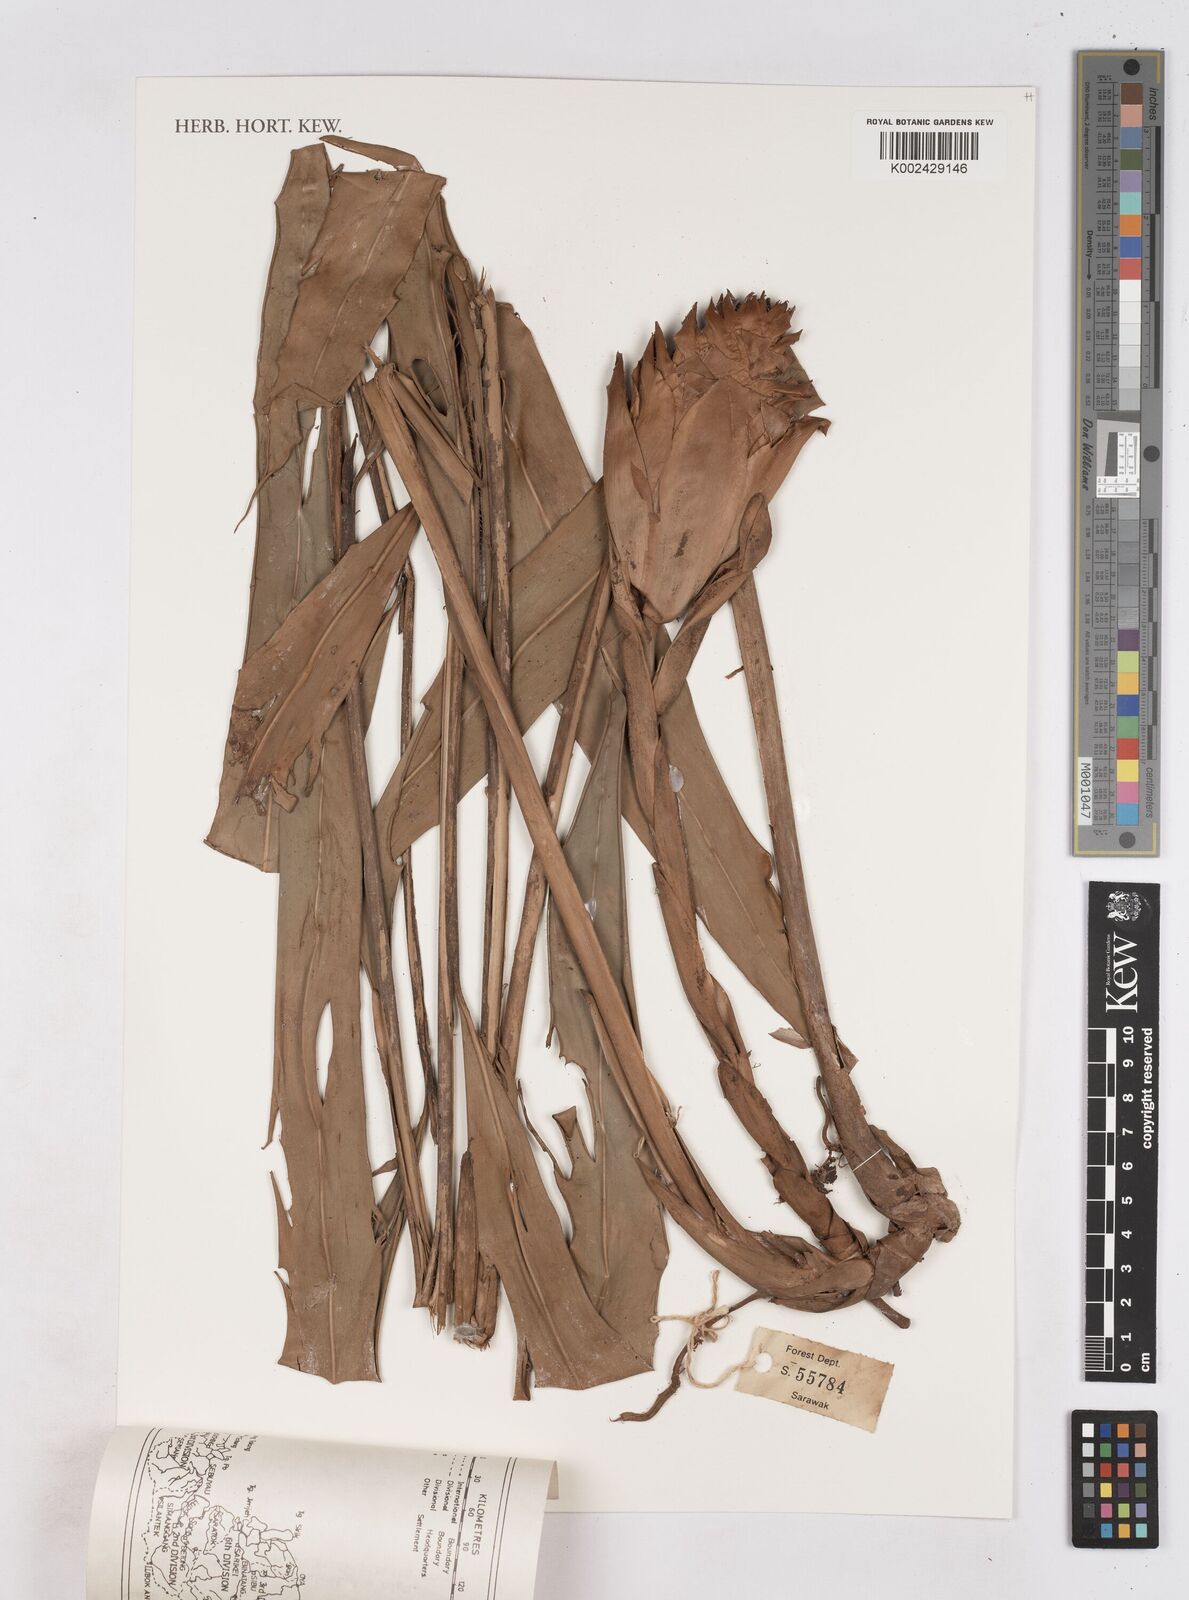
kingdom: Plantae
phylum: Tracheophyta
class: Liliopsida
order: Zingiberales
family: Zingiberaceae
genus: Zingiber
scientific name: Zingiber
